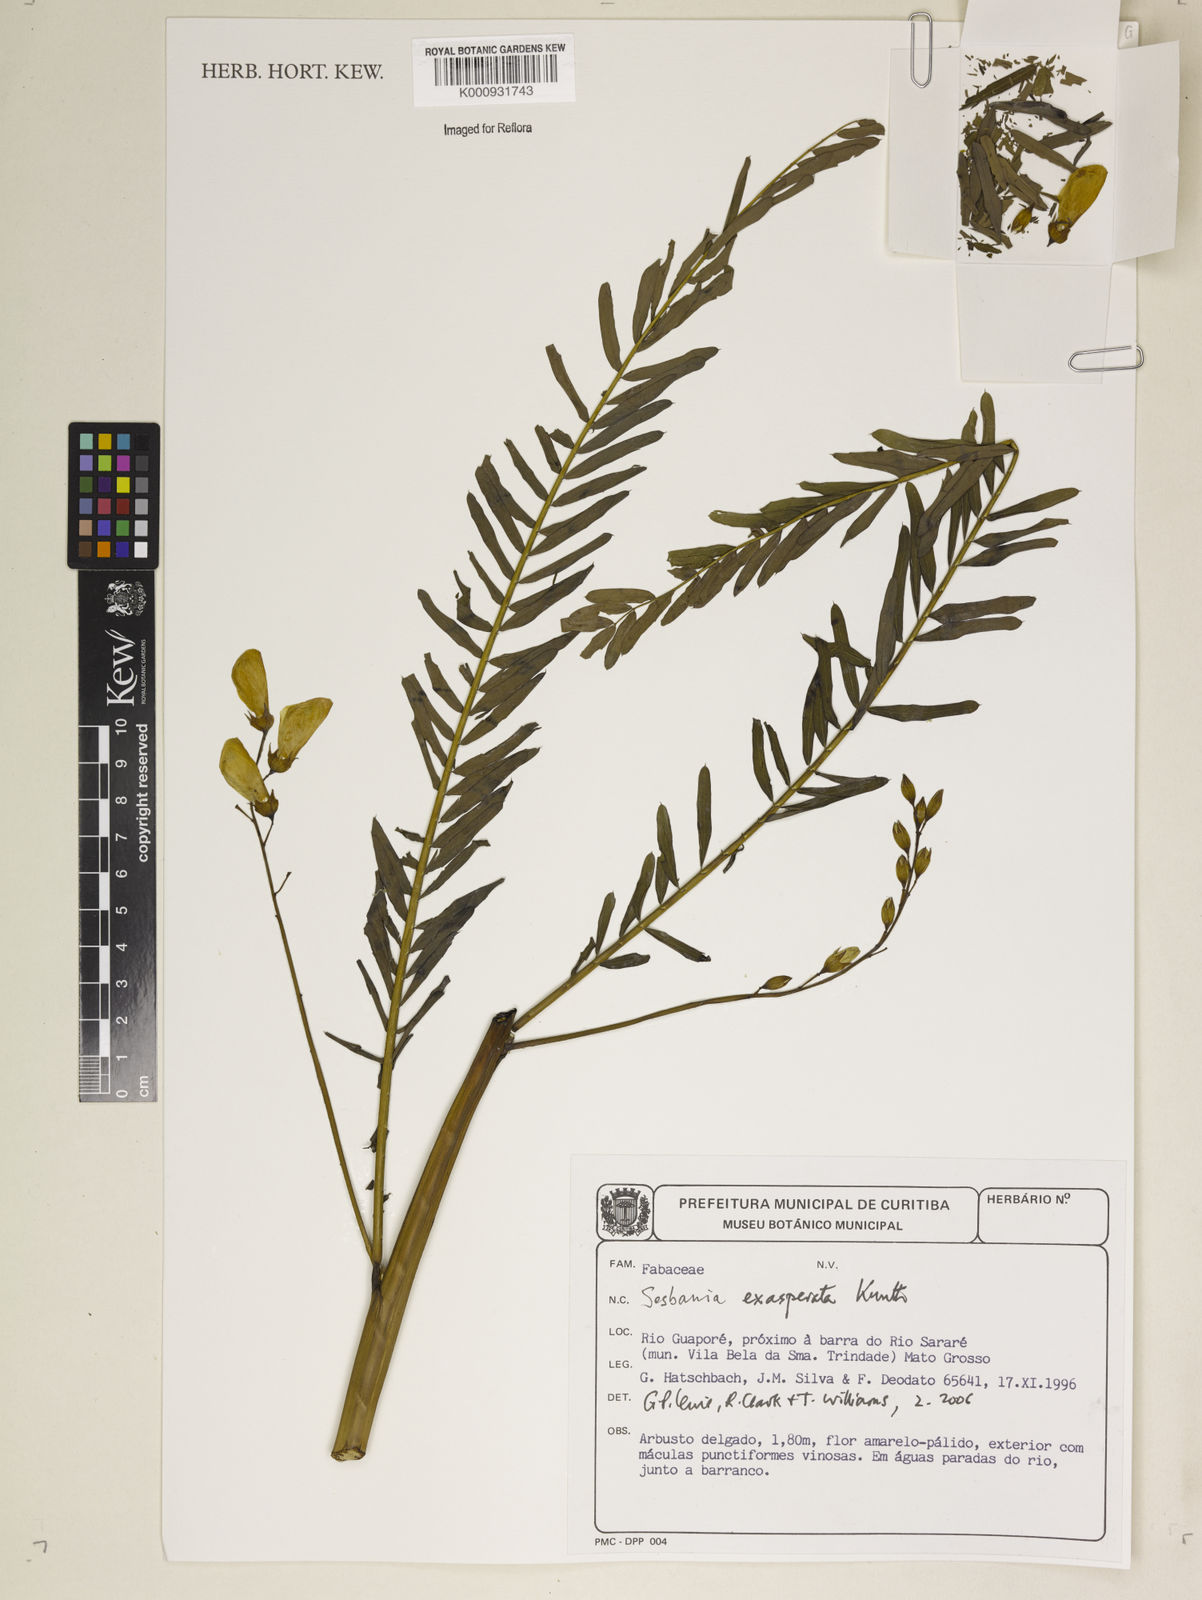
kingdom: Plantae
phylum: Tracheophyta
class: Magnoliopsida
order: Fabales
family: Fabaceae
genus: Sesbania
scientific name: Sesbania exasperata
